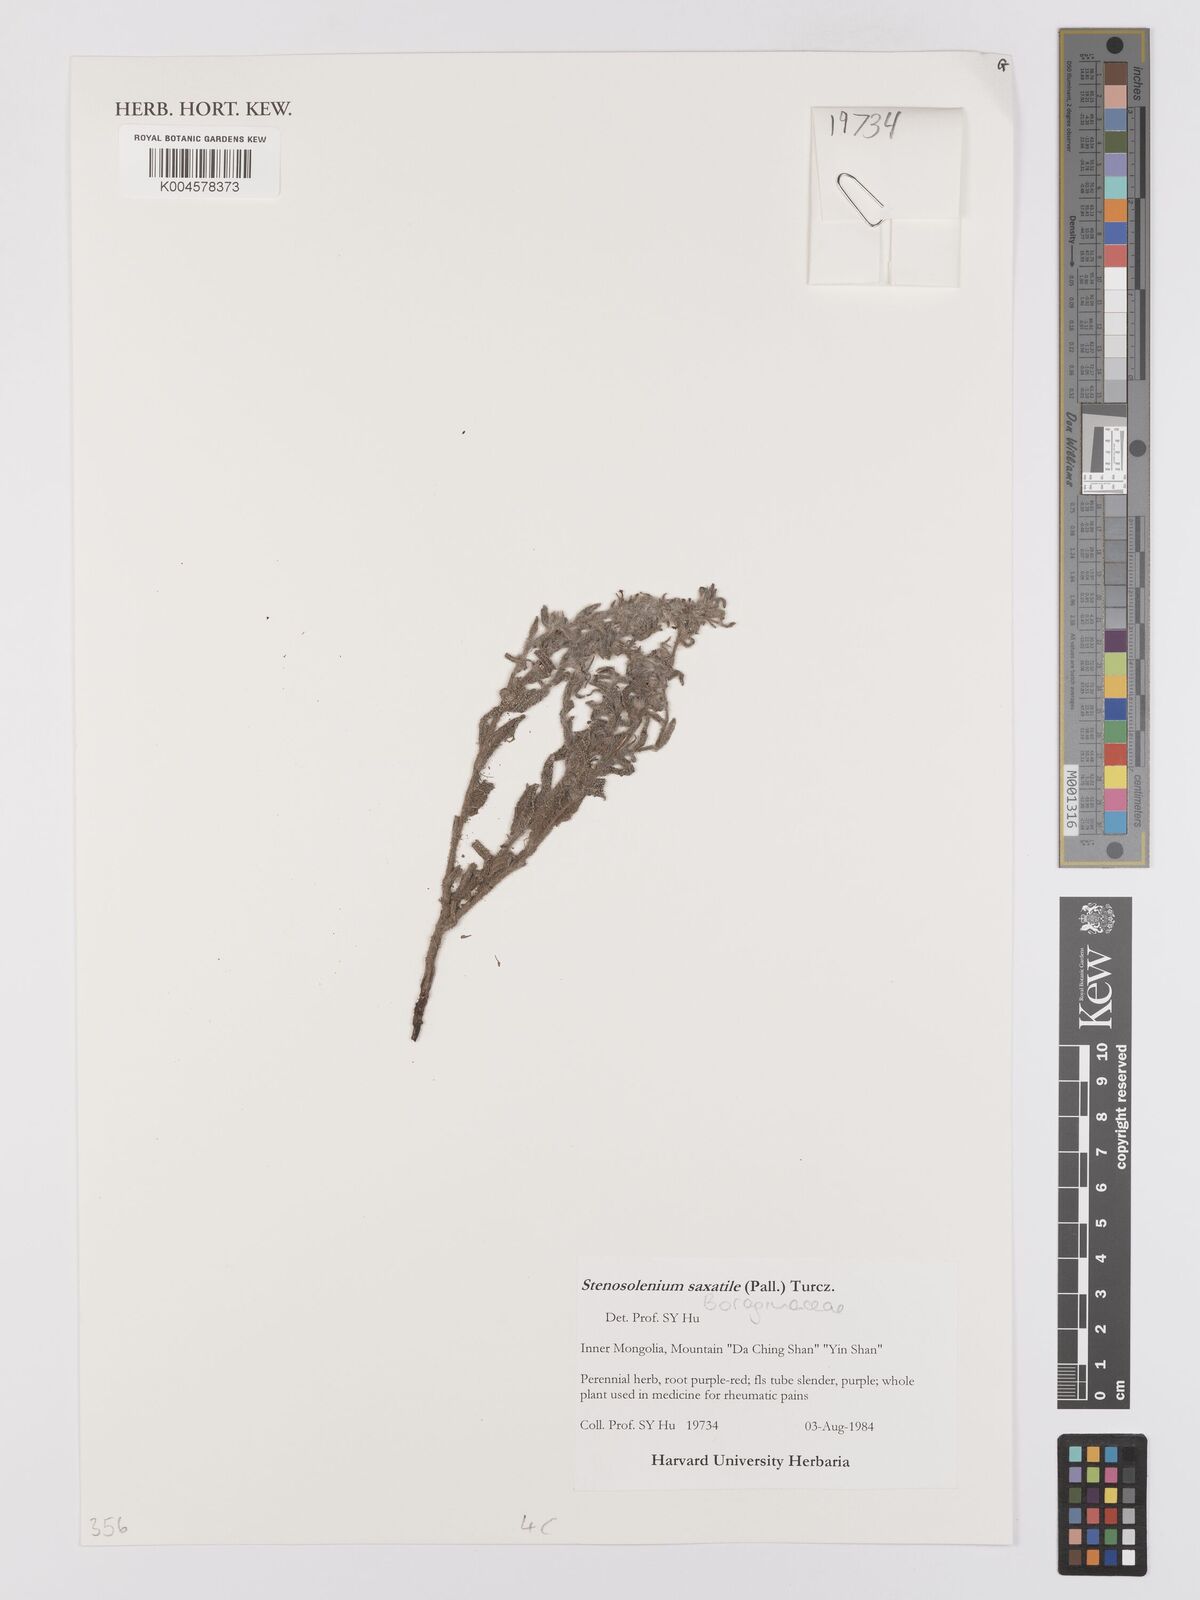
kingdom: Plantae
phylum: Tracheophyta
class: Magnoliopsida
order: Boraginales
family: Boraginaceae
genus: Stenosolenium
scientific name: Stenosolenium saxatile
